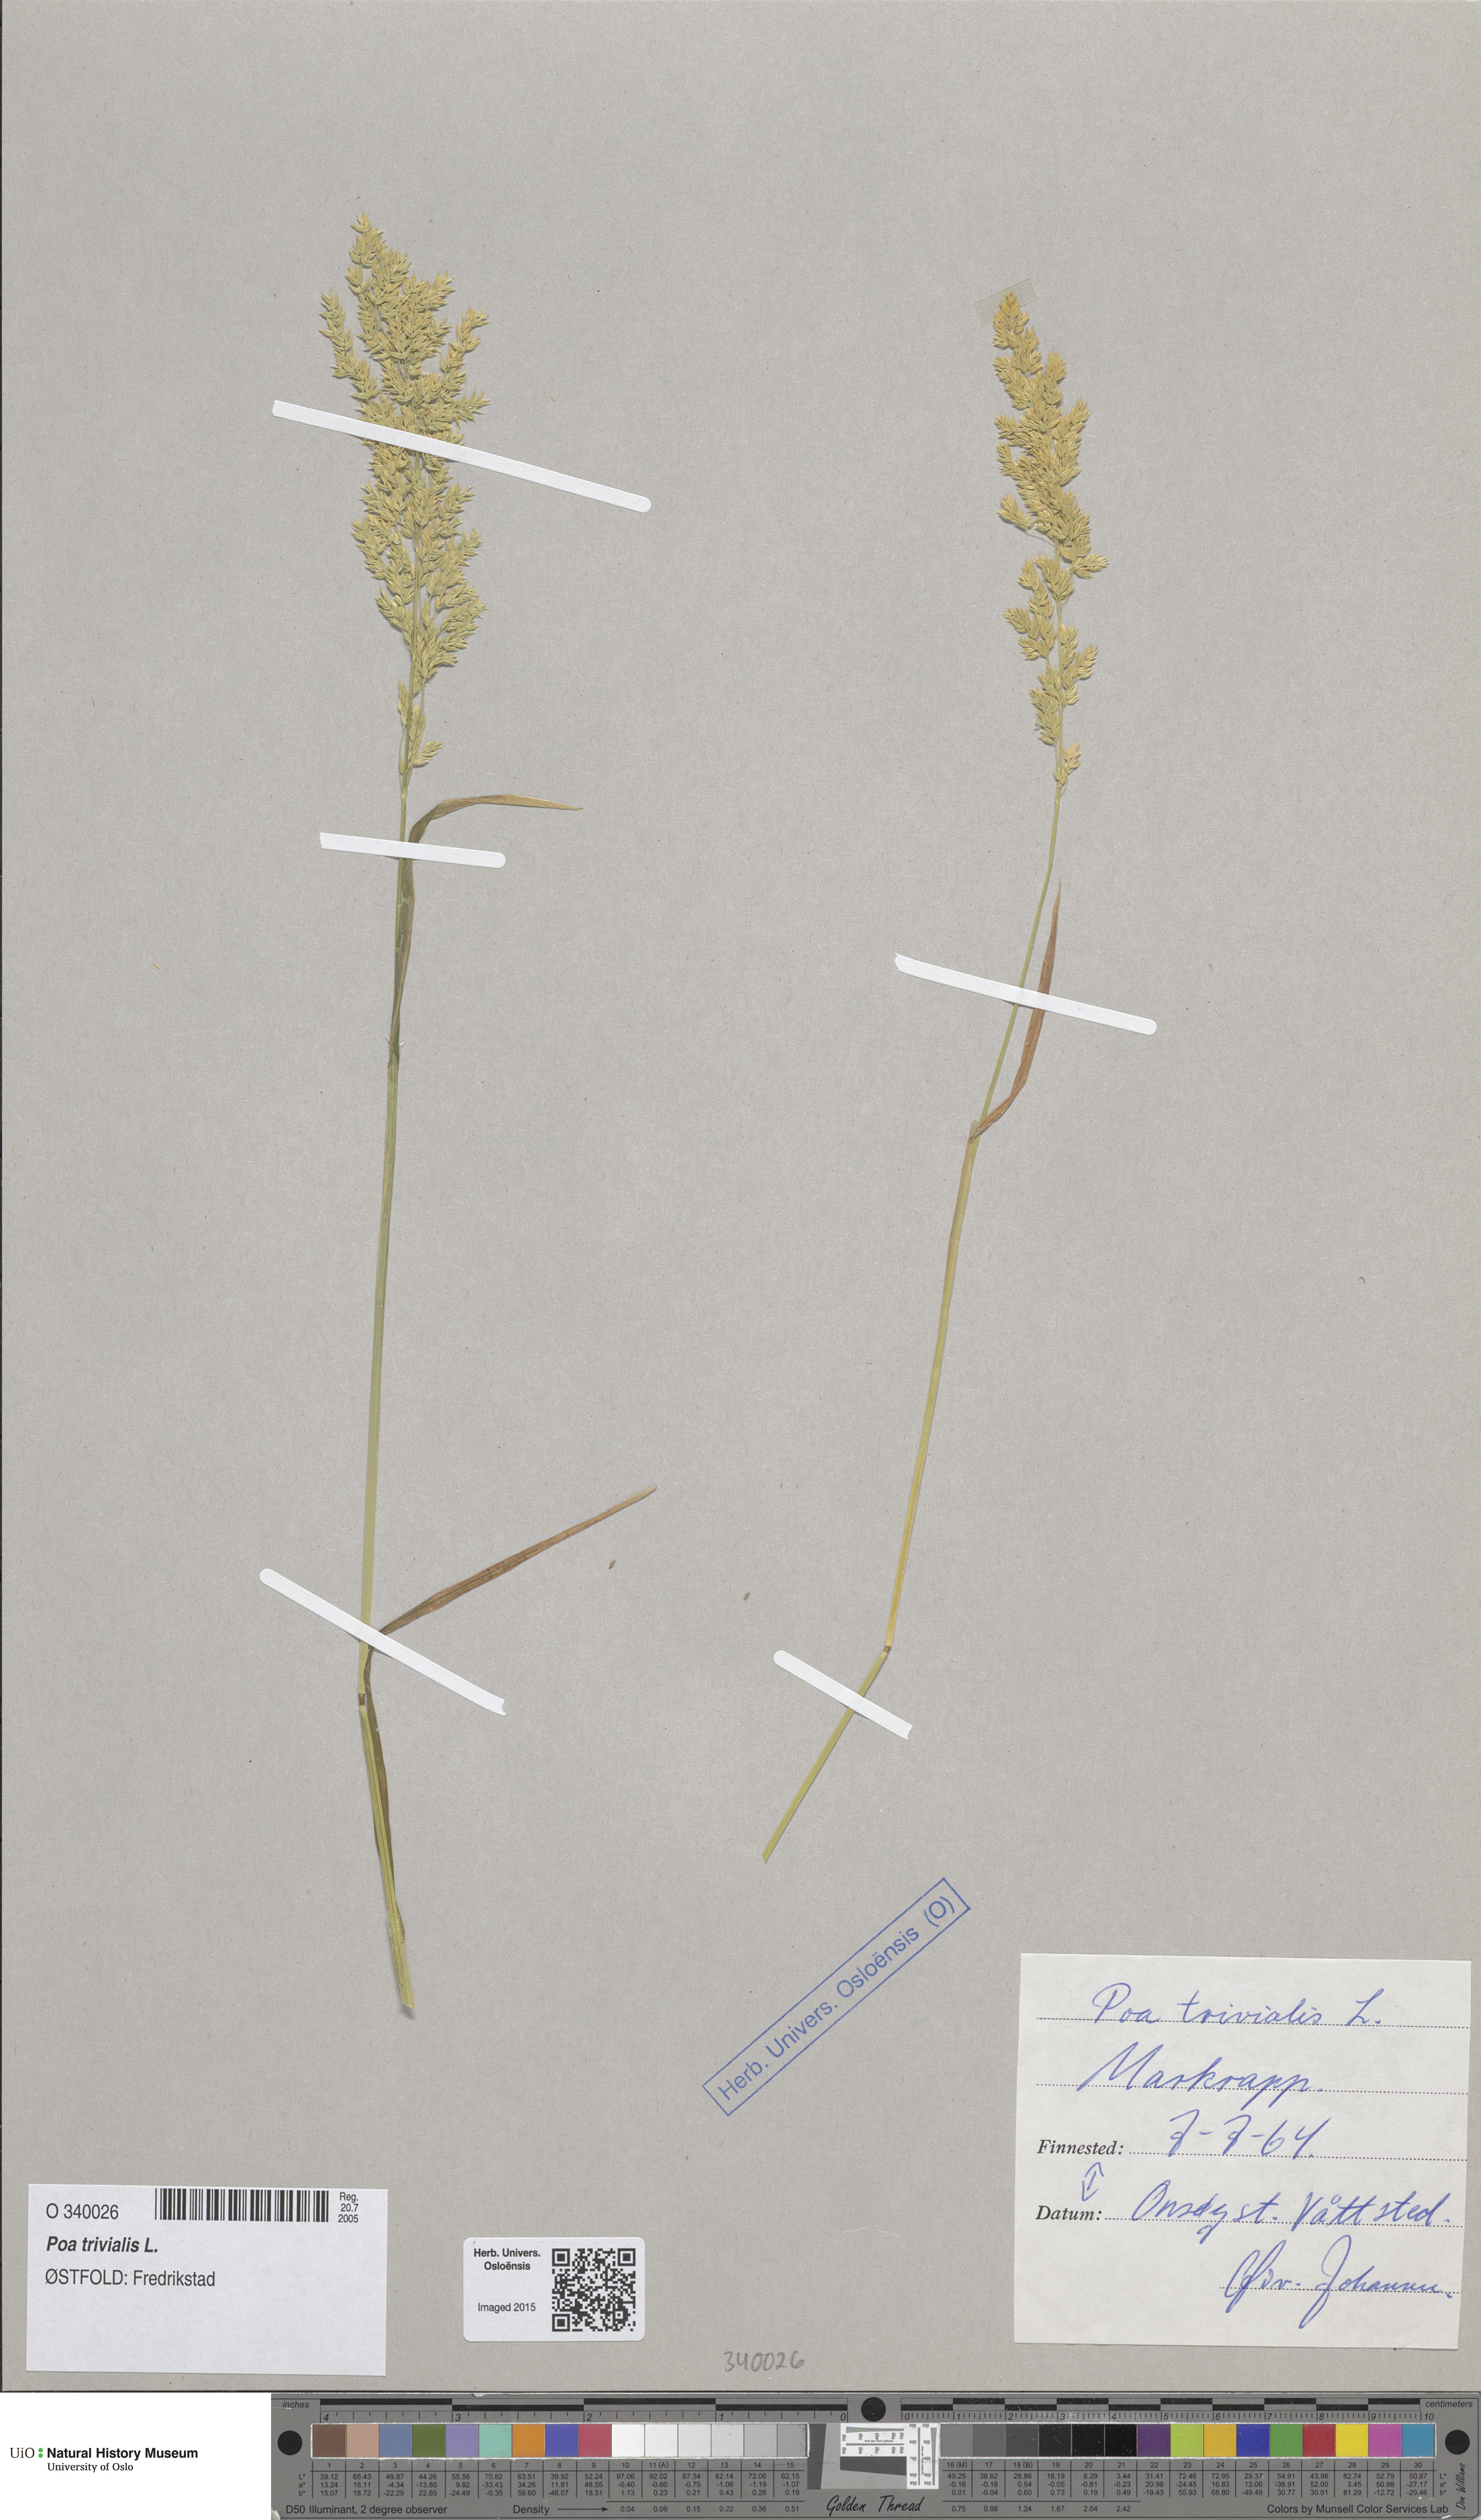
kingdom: Plantae
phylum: Tracheophyta
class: Liliopsida
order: Poales
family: Poaceae
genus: Poa
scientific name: Poa trivialis
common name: Rough bluegrass
